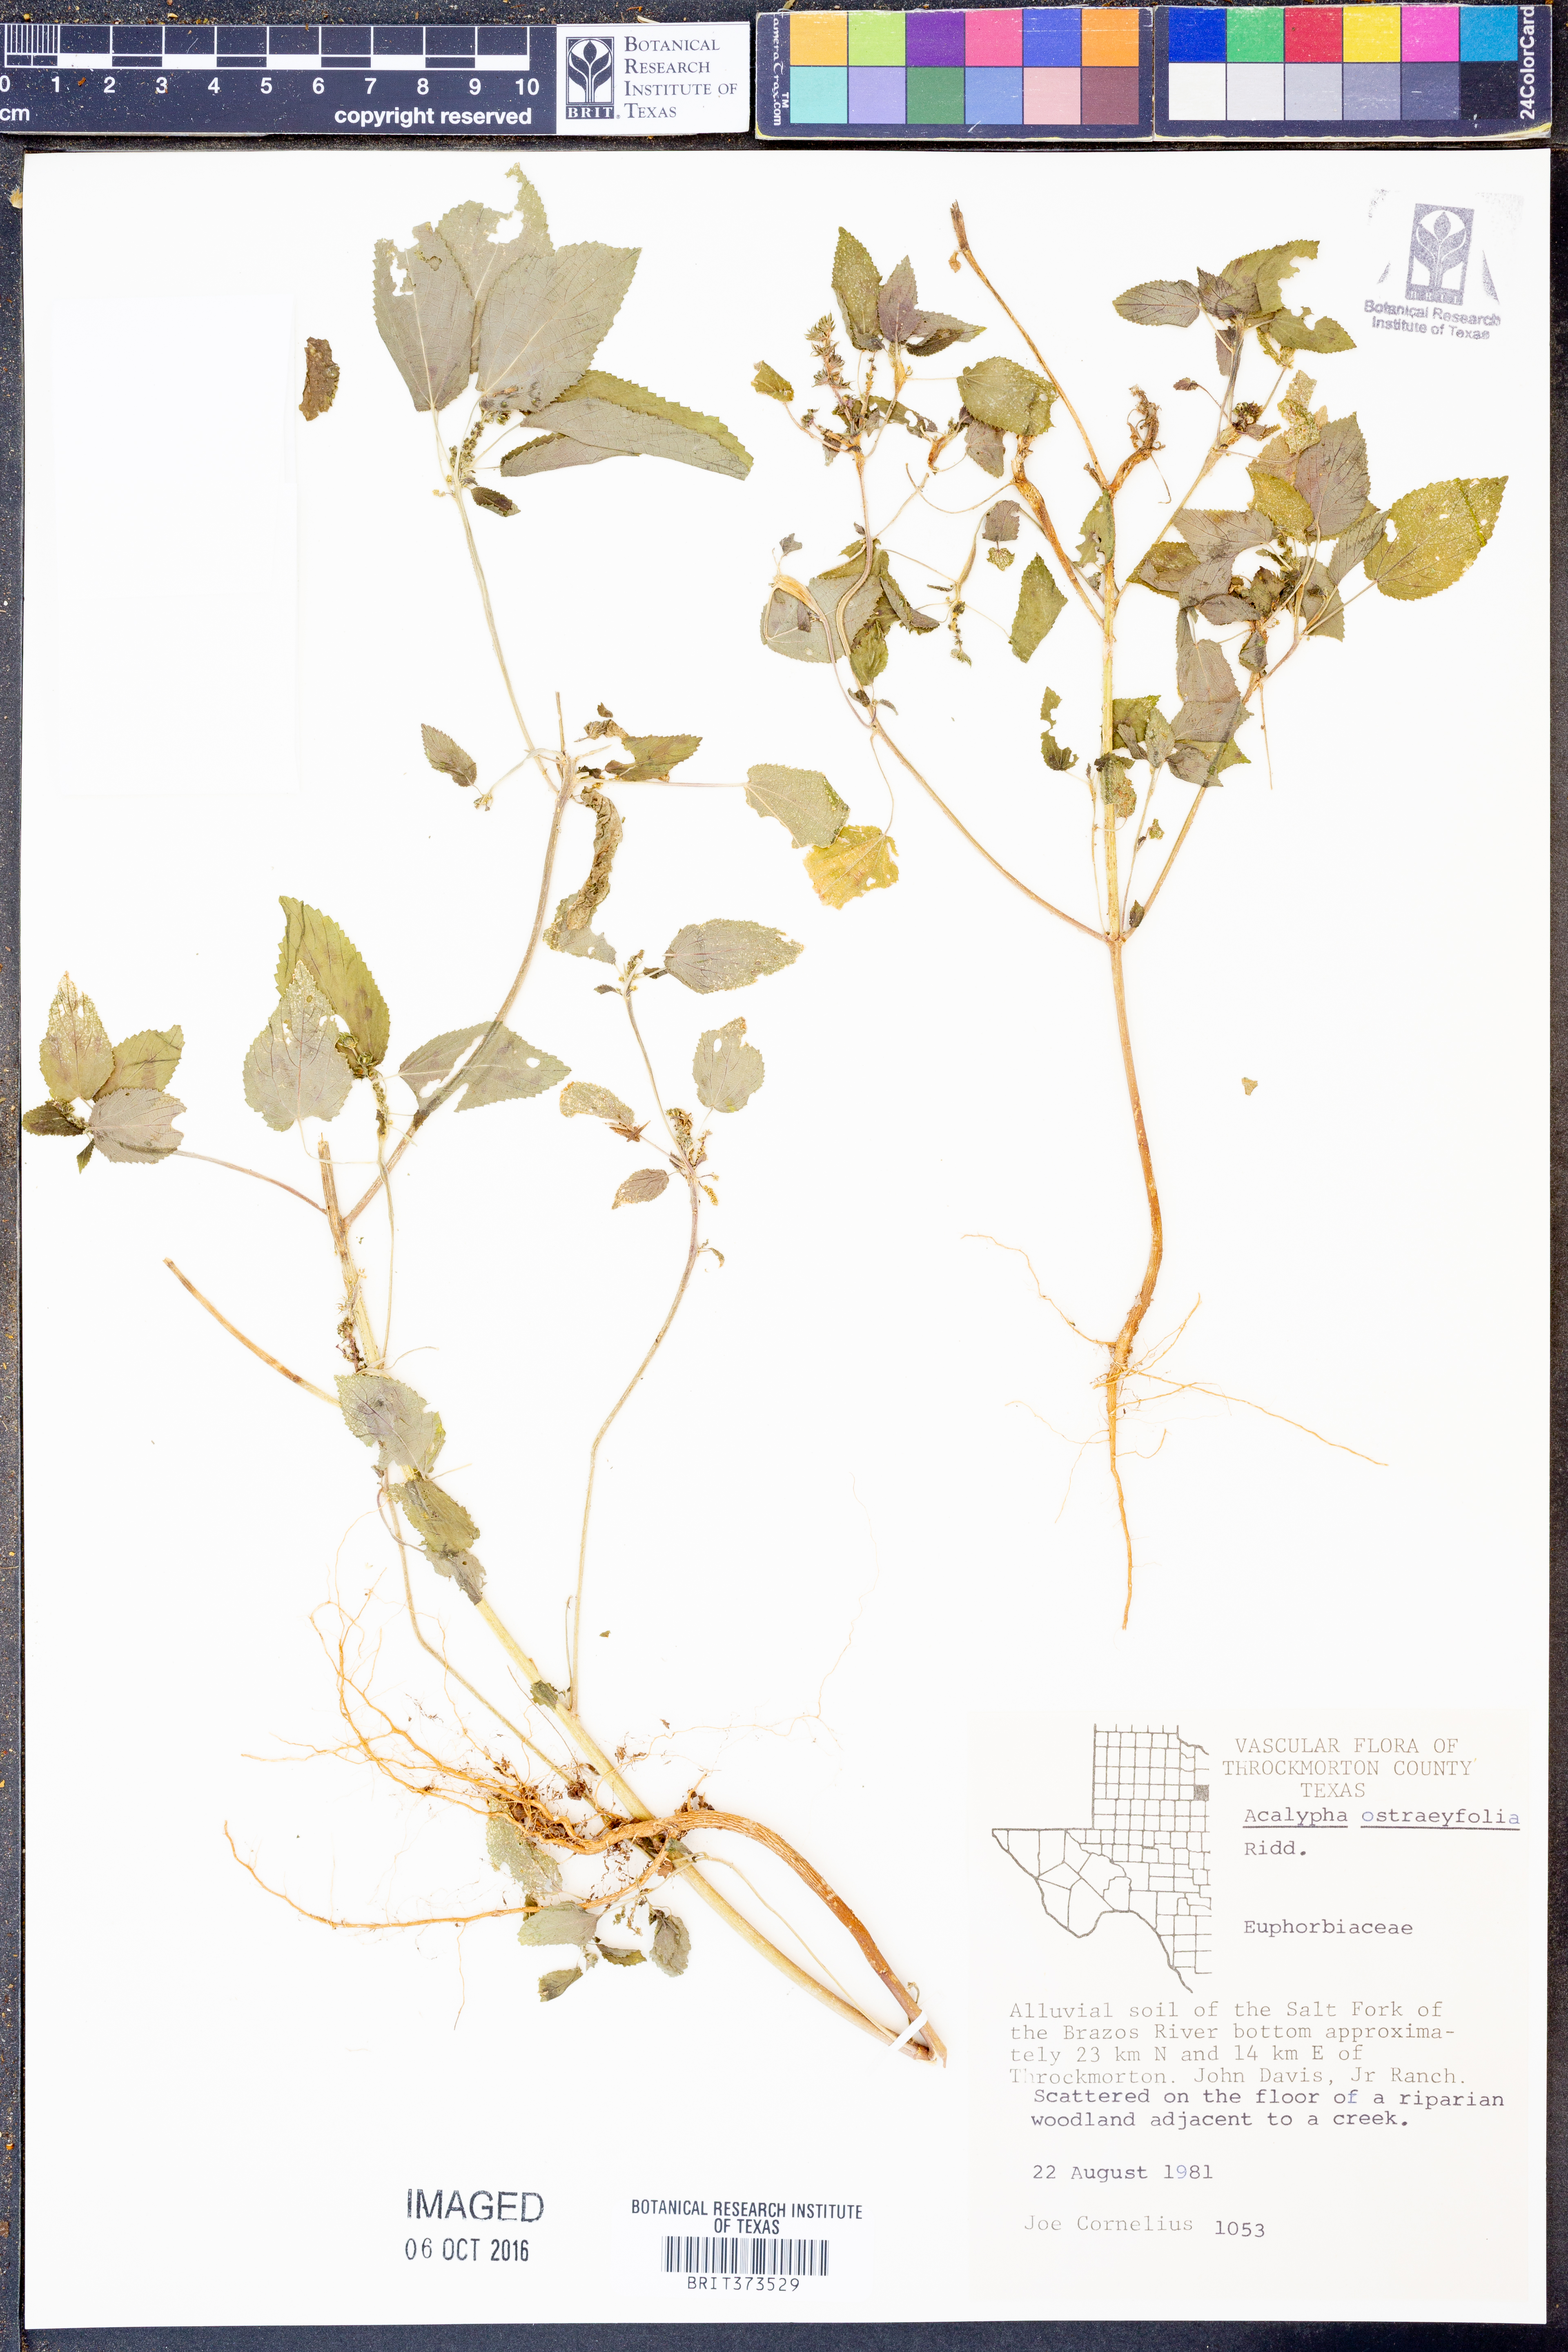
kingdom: Plantae
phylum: Tracheophyta
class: Magnoliopsida
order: Malpighiales
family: Euphorbiaceae
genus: Acalypha
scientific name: Acalypha ostryifolia
